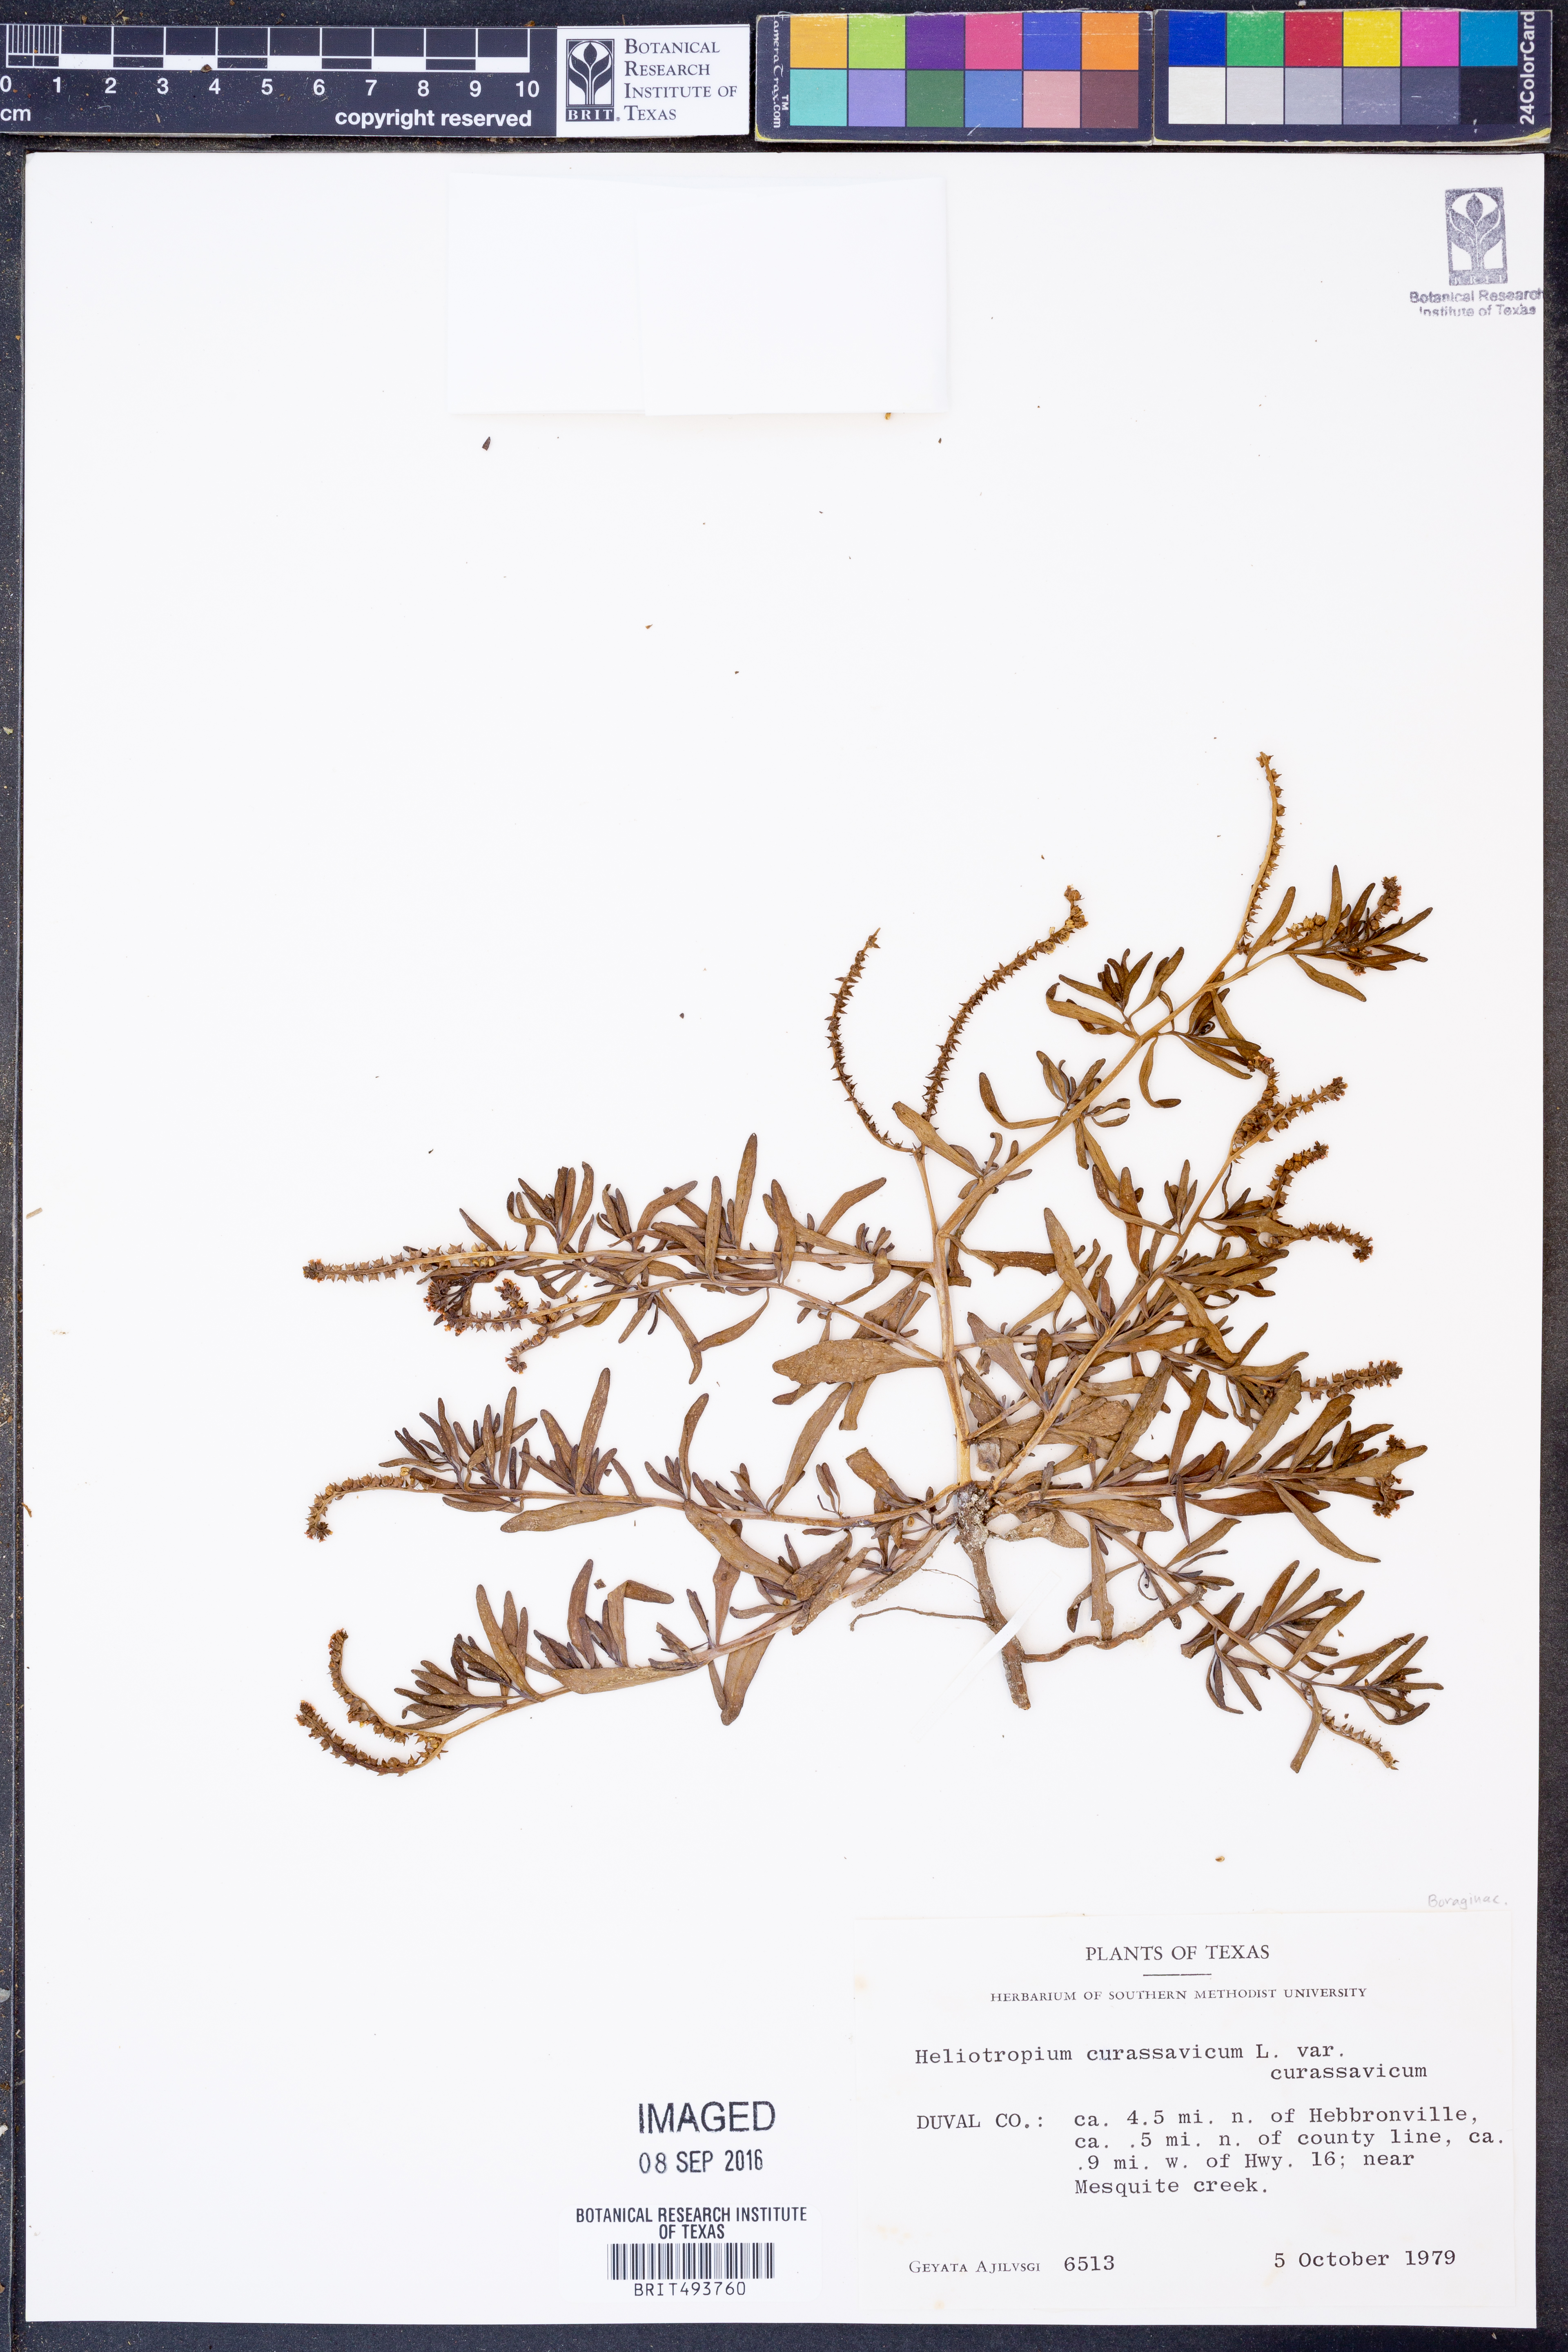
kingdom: Plantae
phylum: Tracheophyta
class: Magnoliopsida
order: Boraginales
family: Heliotropiaceae
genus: Heliotropium
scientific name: Heliotropium curassavicum
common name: Seaside heliotrope
